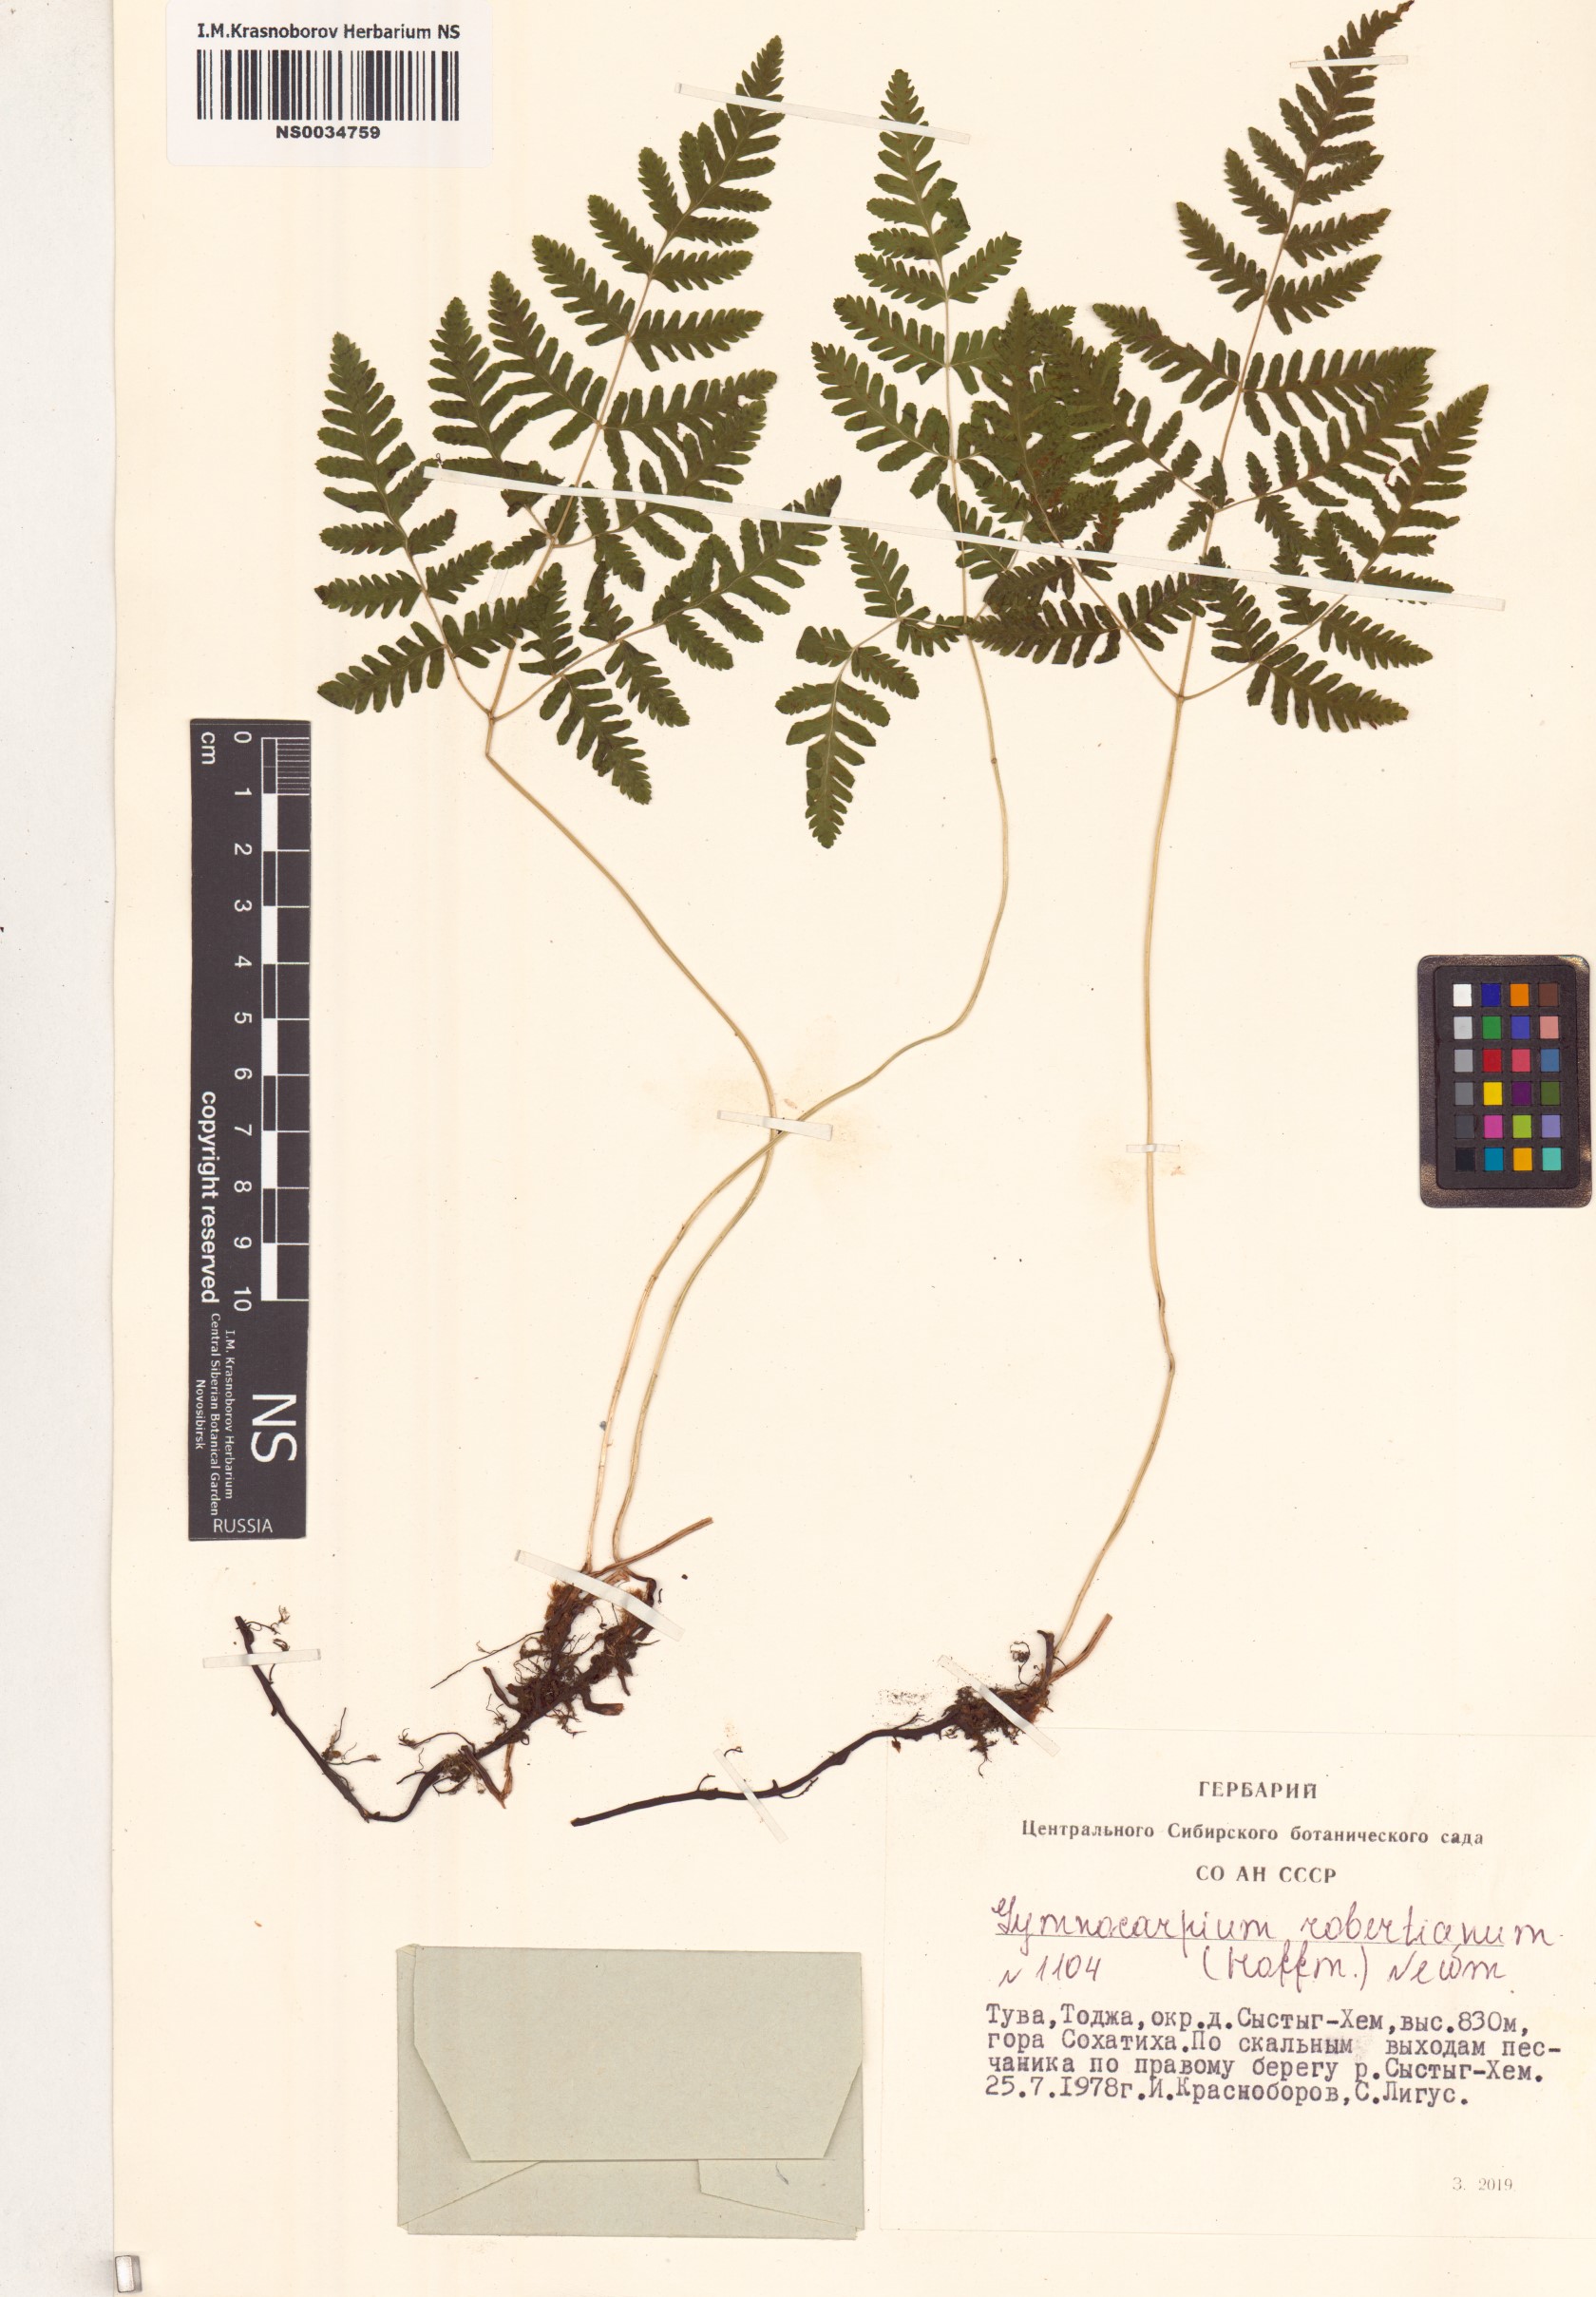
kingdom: Plantae
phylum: Tracheophyta
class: Polypodiopsida
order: Polypodiales
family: Cystopteridaceae
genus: Gymnocarpium
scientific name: Gymnocarpium robertianum
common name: Limestone fern
